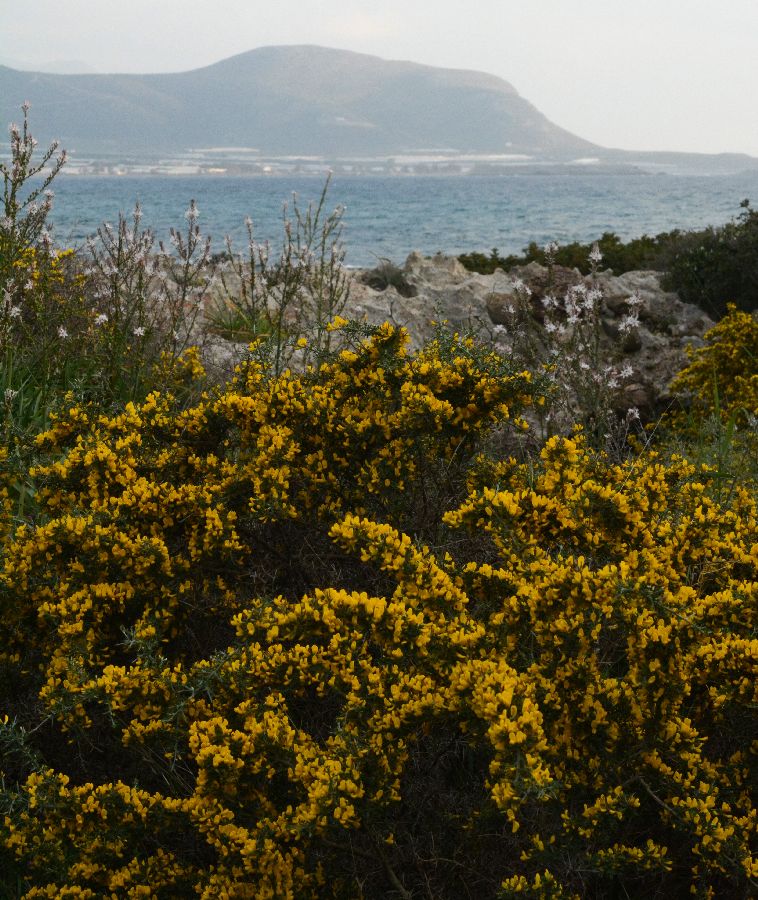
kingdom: Plantae
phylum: Tracheophyta
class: Magnoliopsida
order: Fabales
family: Fabaceae
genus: Calicotome
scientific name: Calicotome villosa
